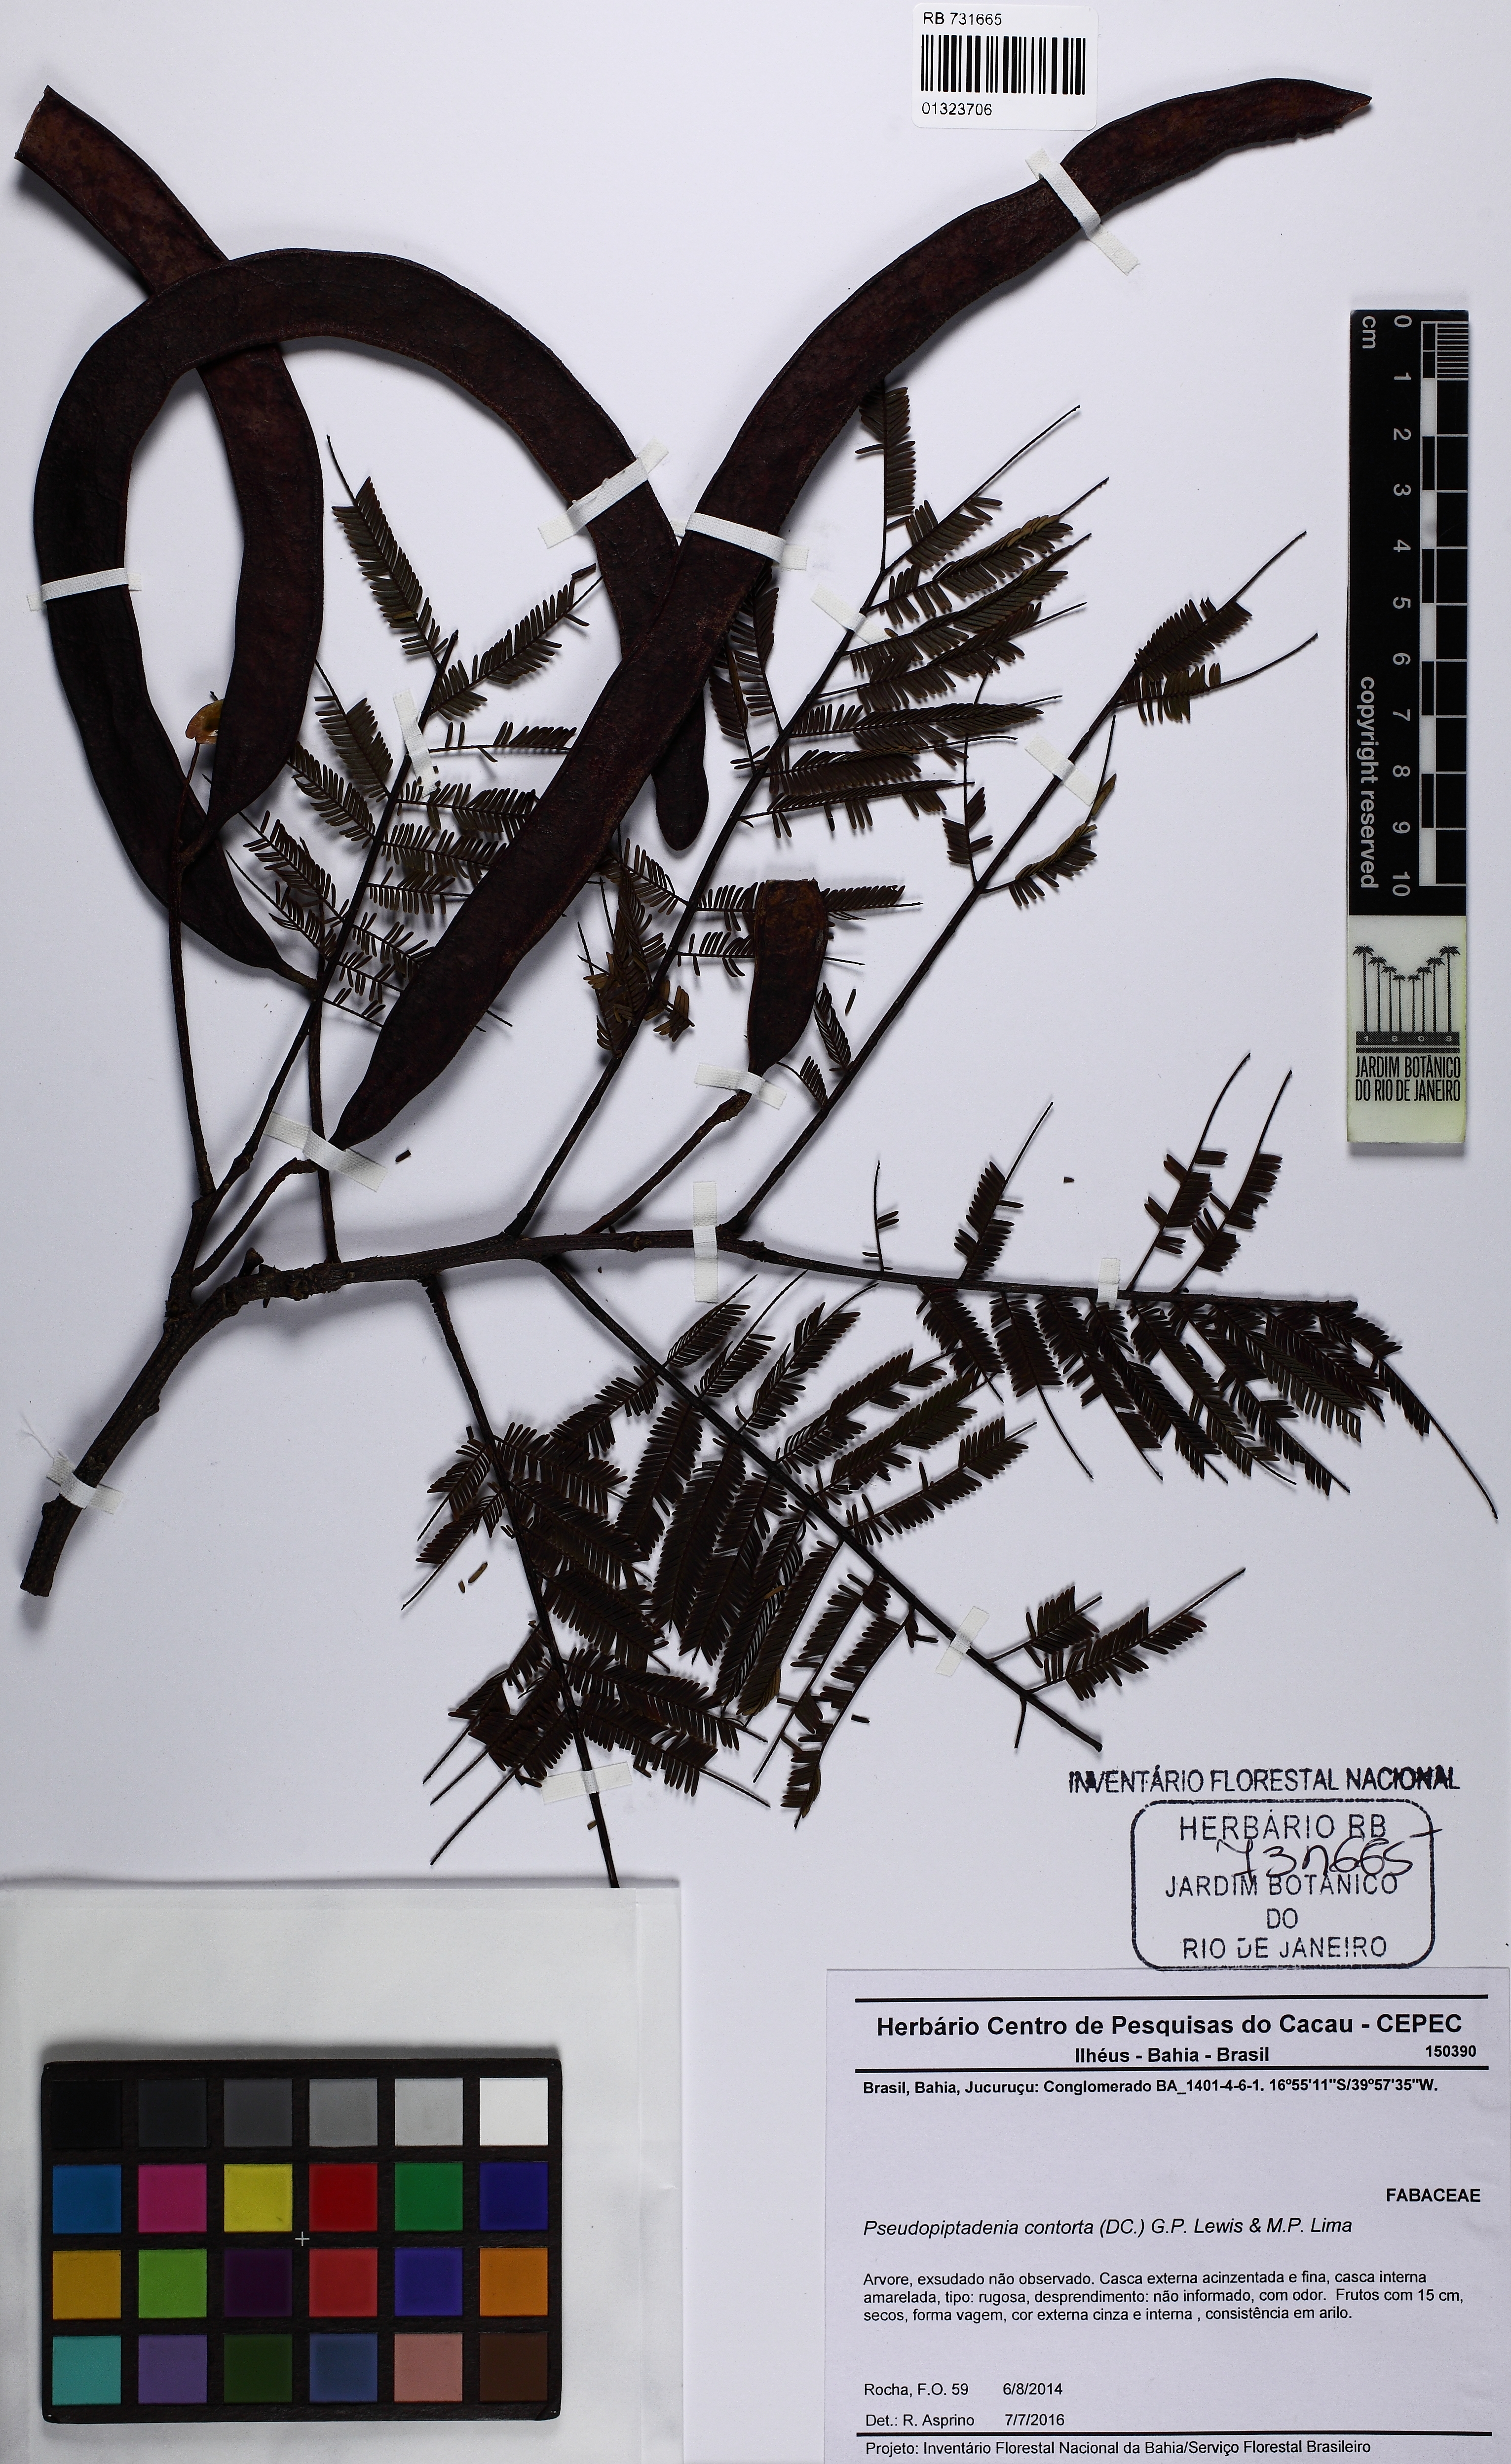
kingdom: Plantae
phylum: Tracheophyta
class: Magnoliopsida
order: Fabales
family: Fabaceae
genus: Pseudopiptadenia
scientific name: Pseudopiptadenia contorta
